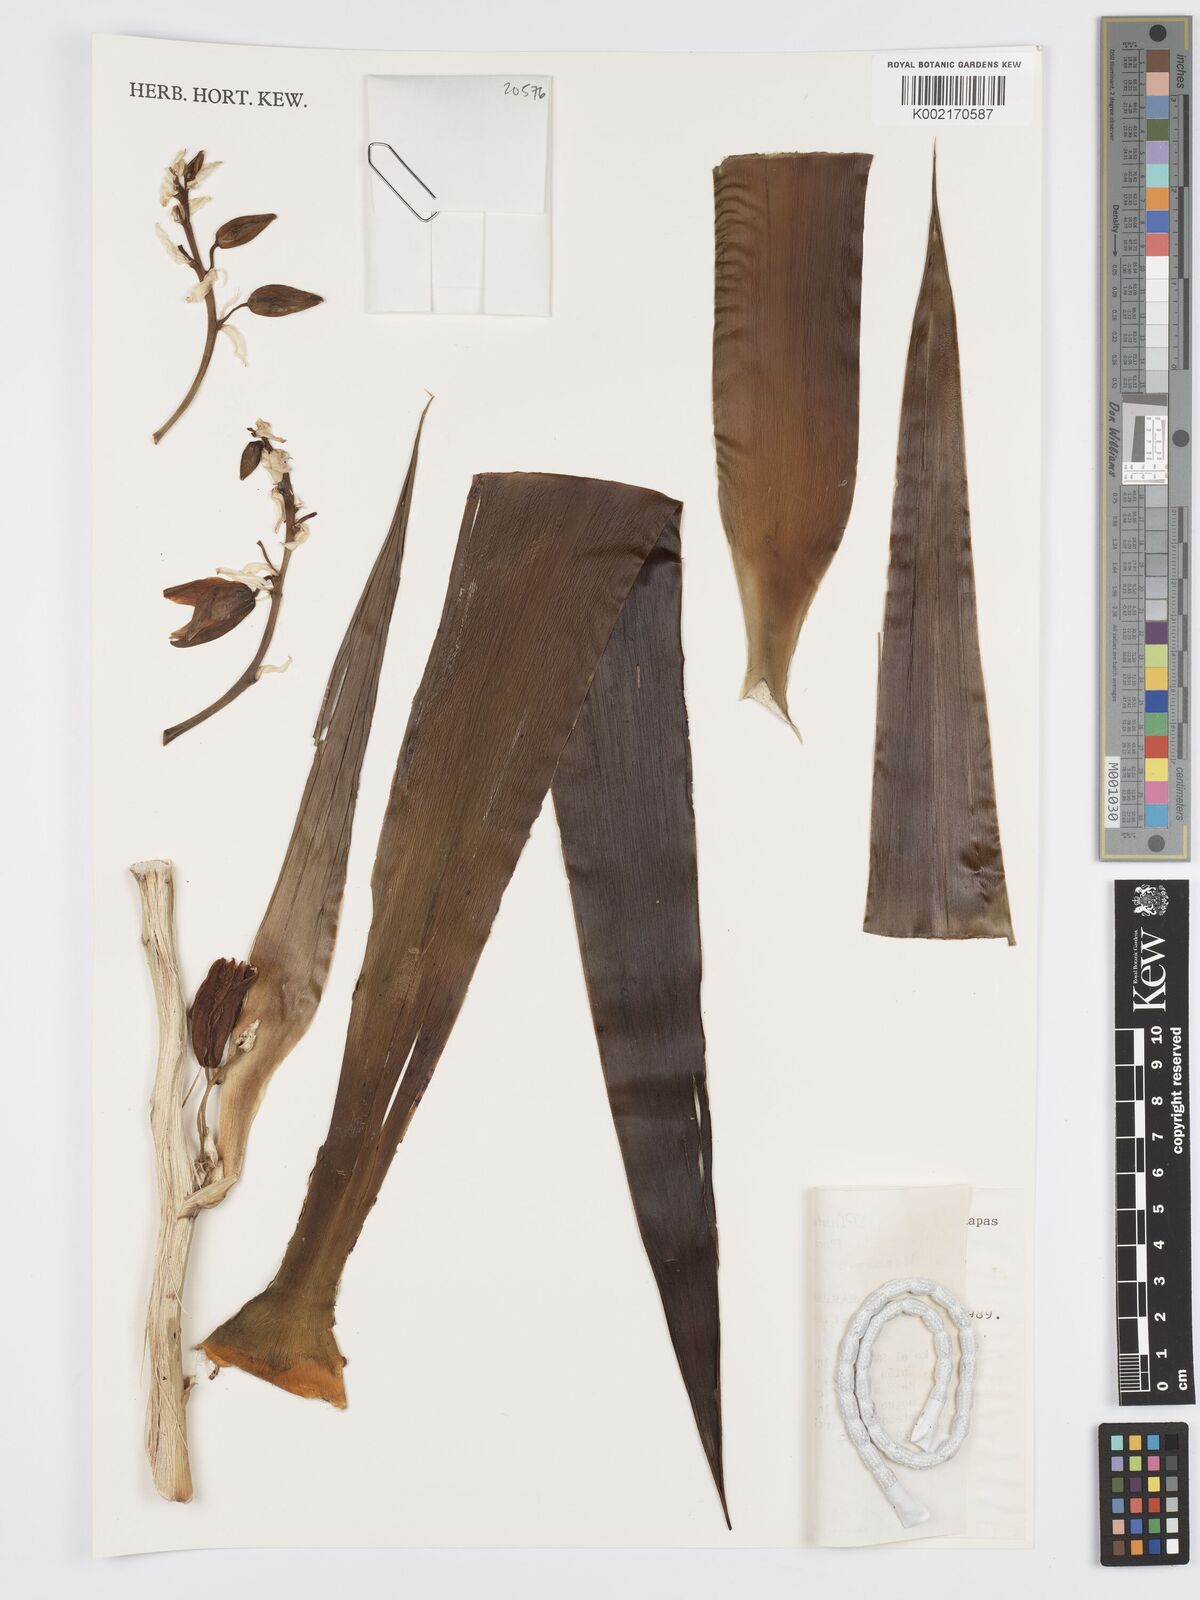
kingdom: Plantae
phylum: Tracheophyta
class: Liliopsida
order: Asparagales
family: Asparagaceae
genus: Yucca
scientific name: Yucca
